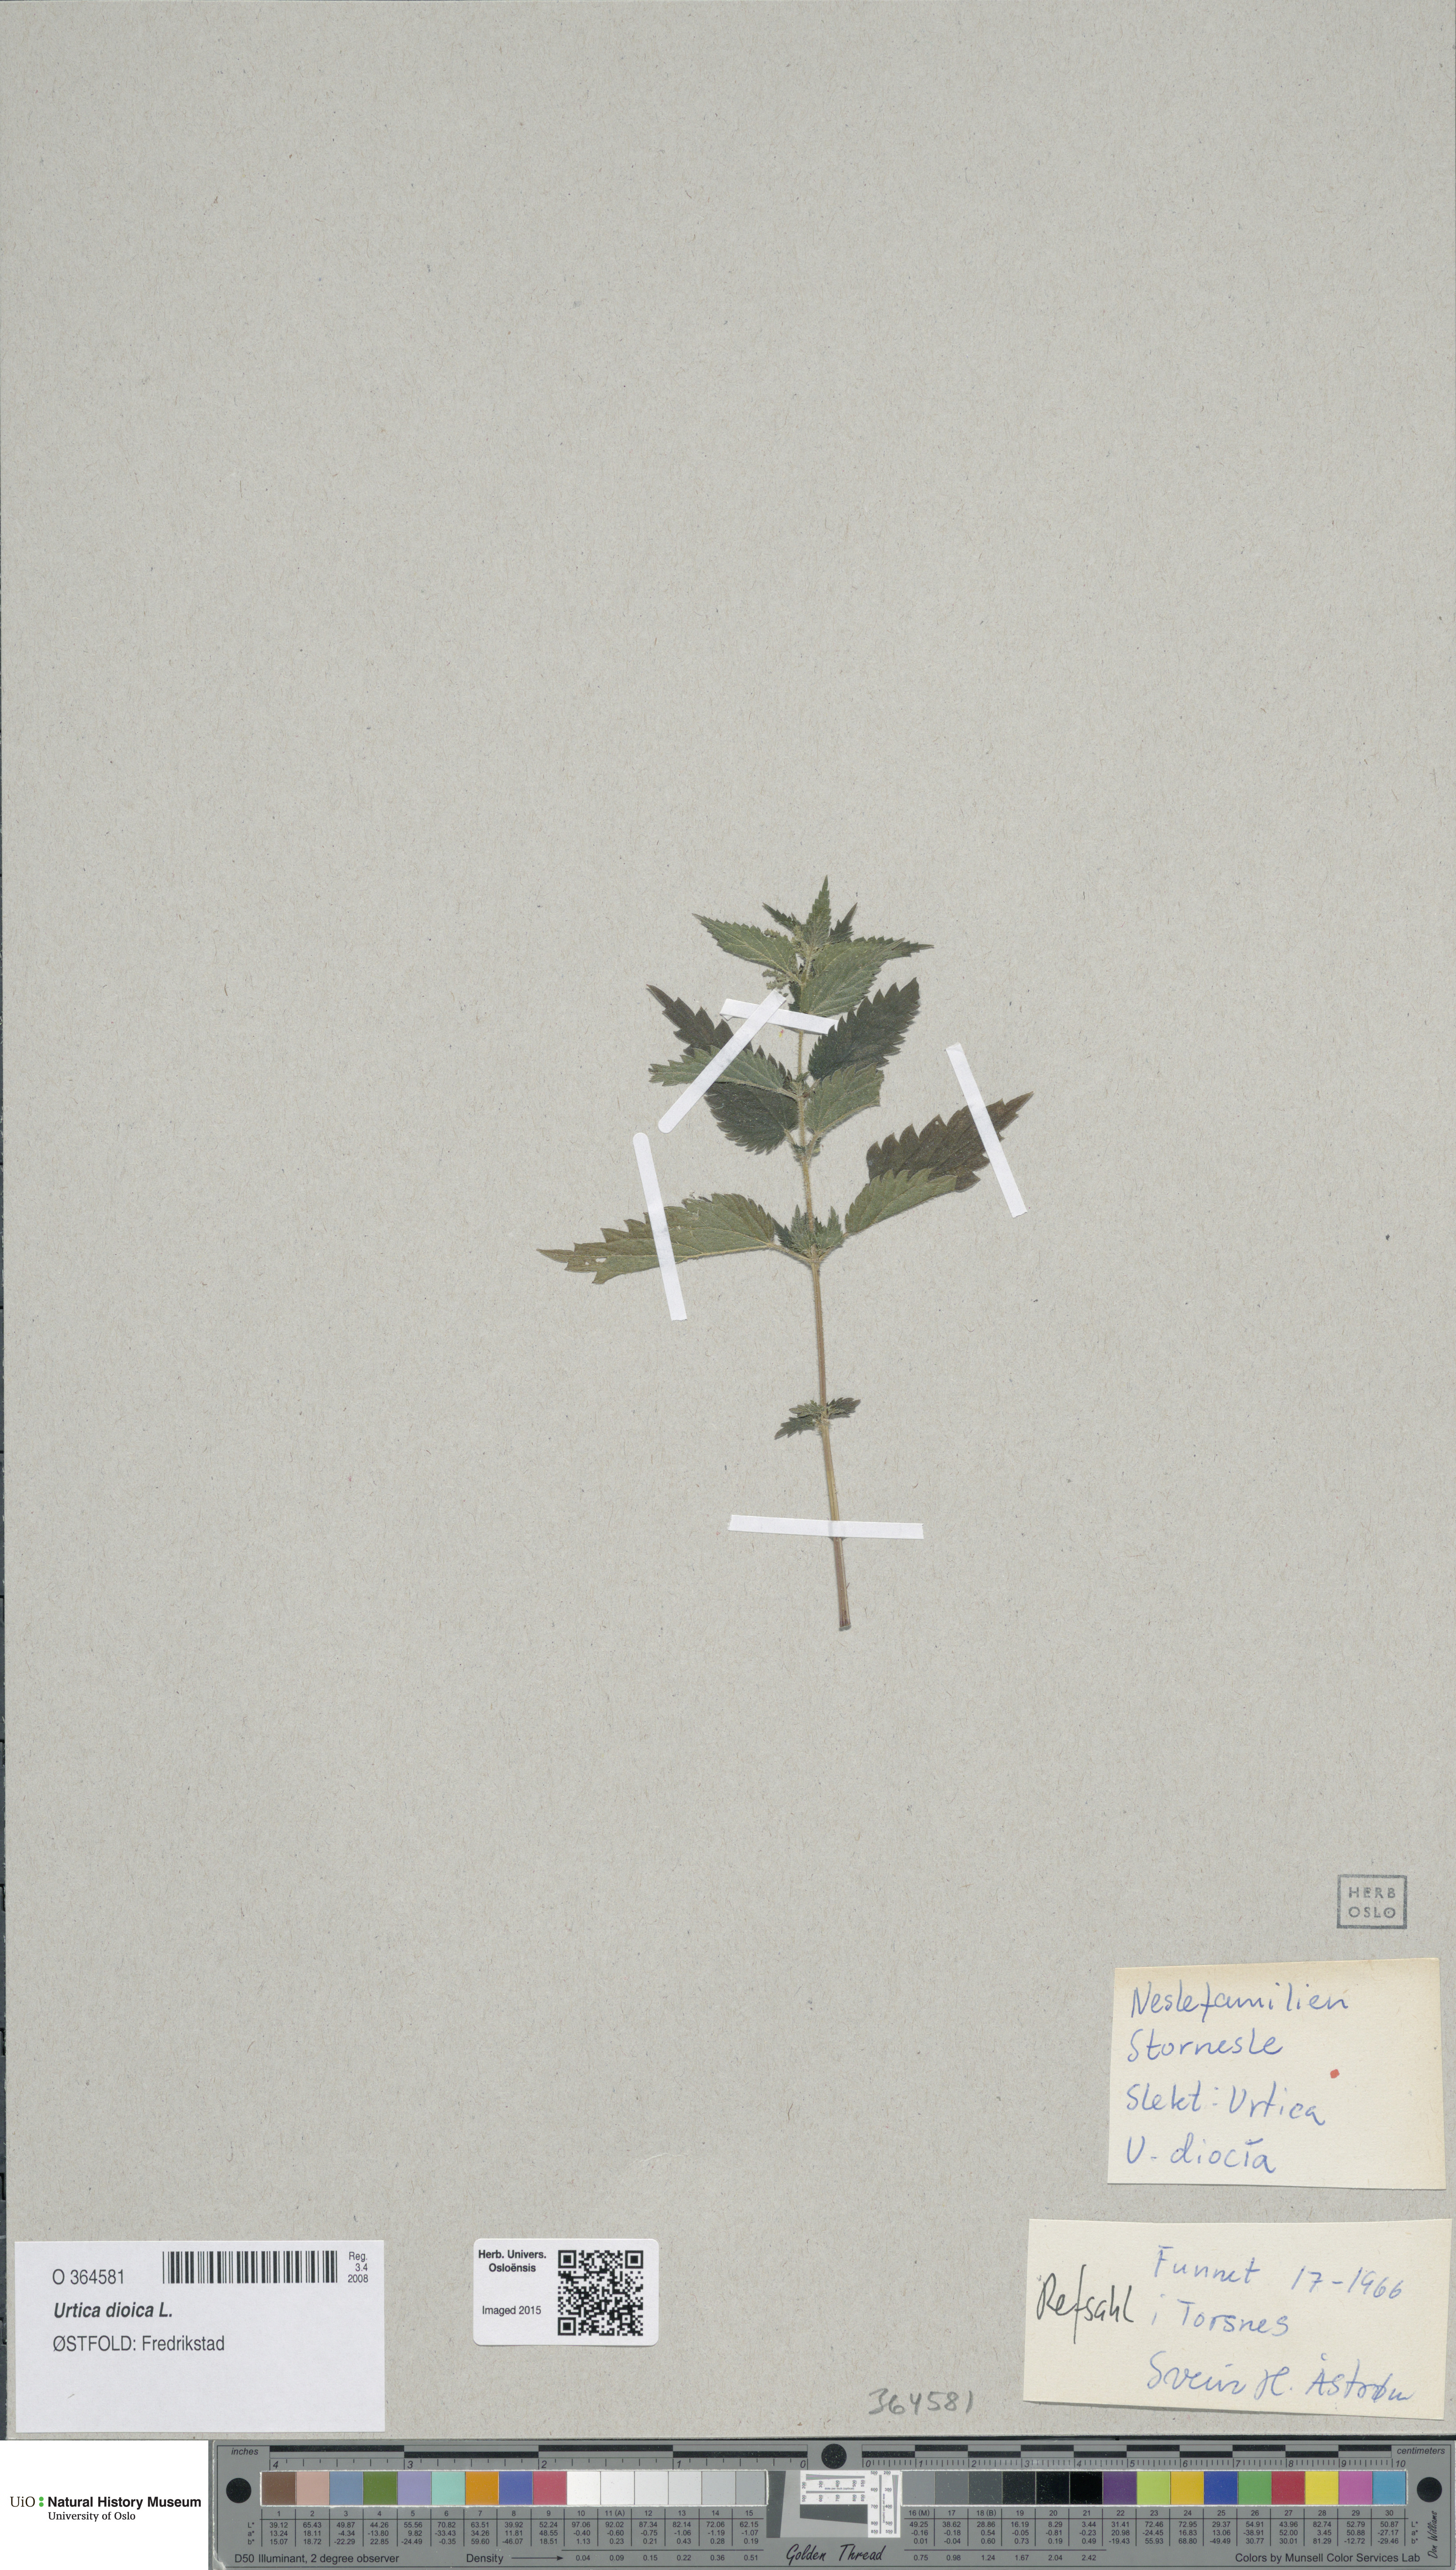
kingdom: Plantae
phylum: Tracheophyta
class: Magnoliopsida
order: Rosales
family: Urticaceae
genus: Urtica
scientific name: Urtica dioica
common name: Common nettle
